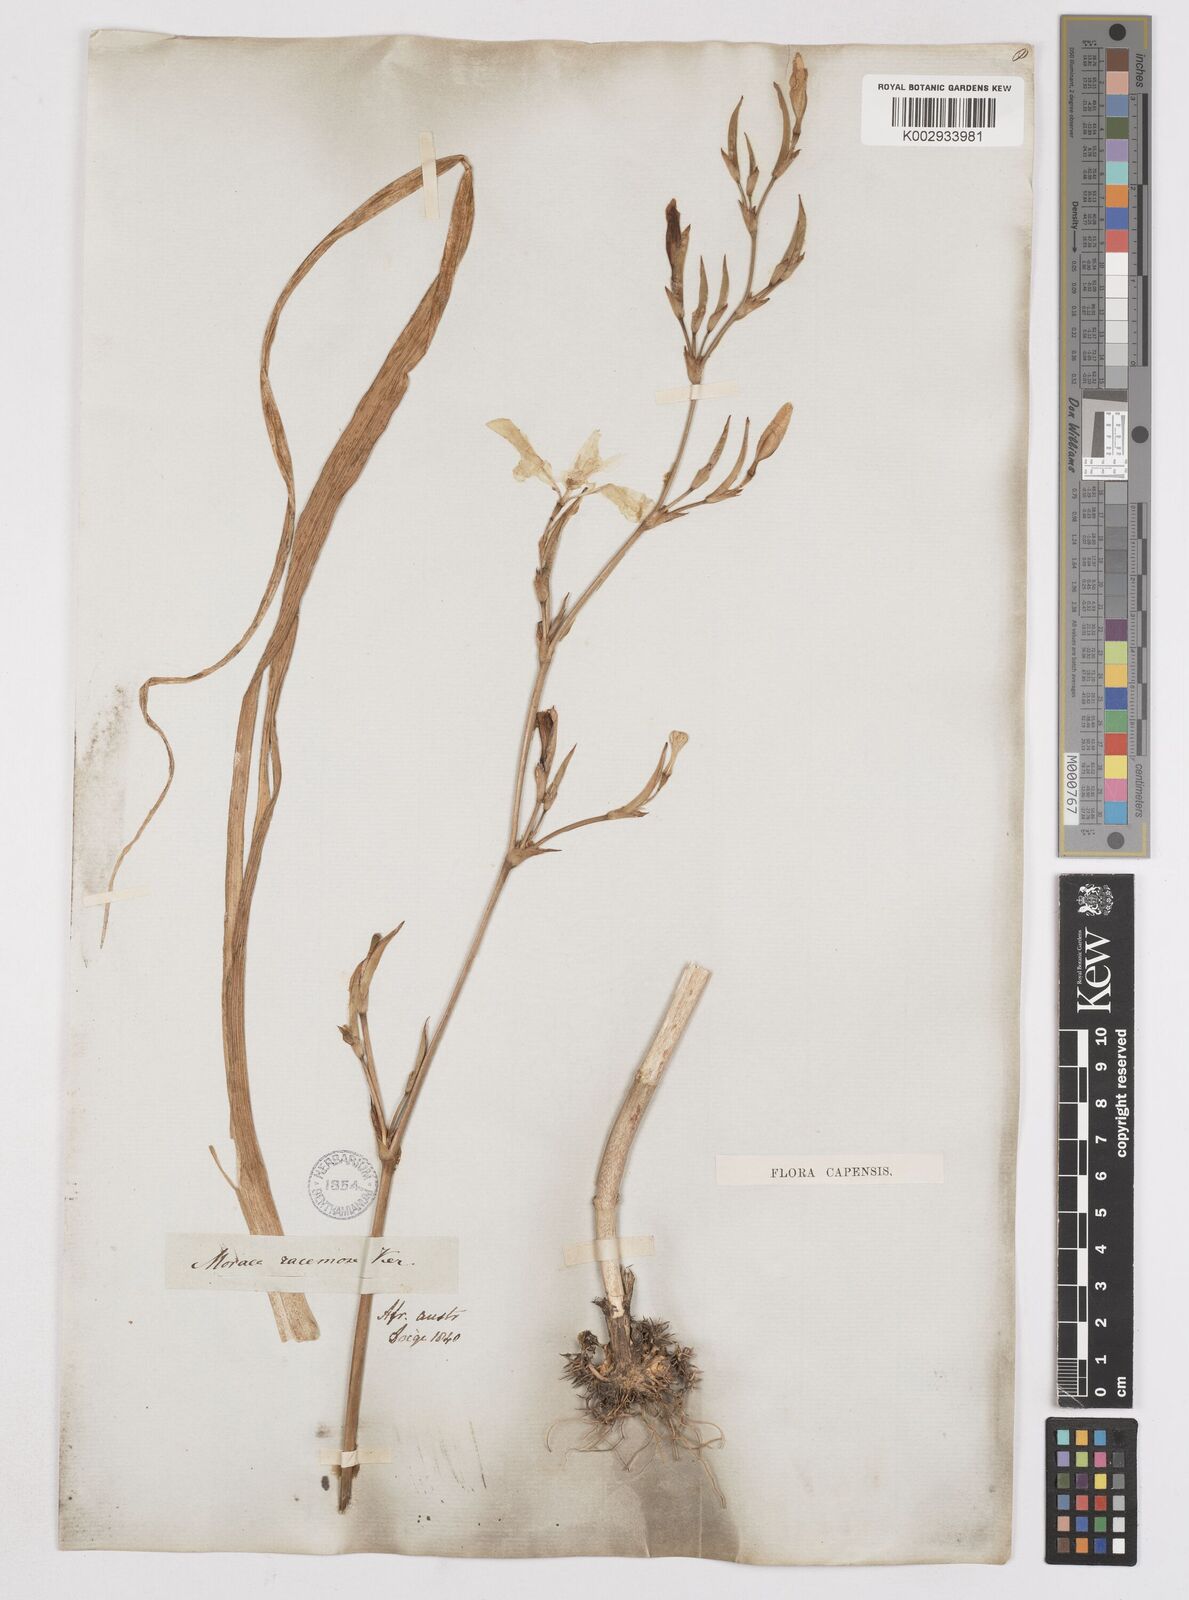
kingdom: Plantae
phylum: Tracheophyta
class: Liliopsida
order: Asparagales
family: Iridaceae
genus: Moraea
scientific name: Moraea ramosissima
